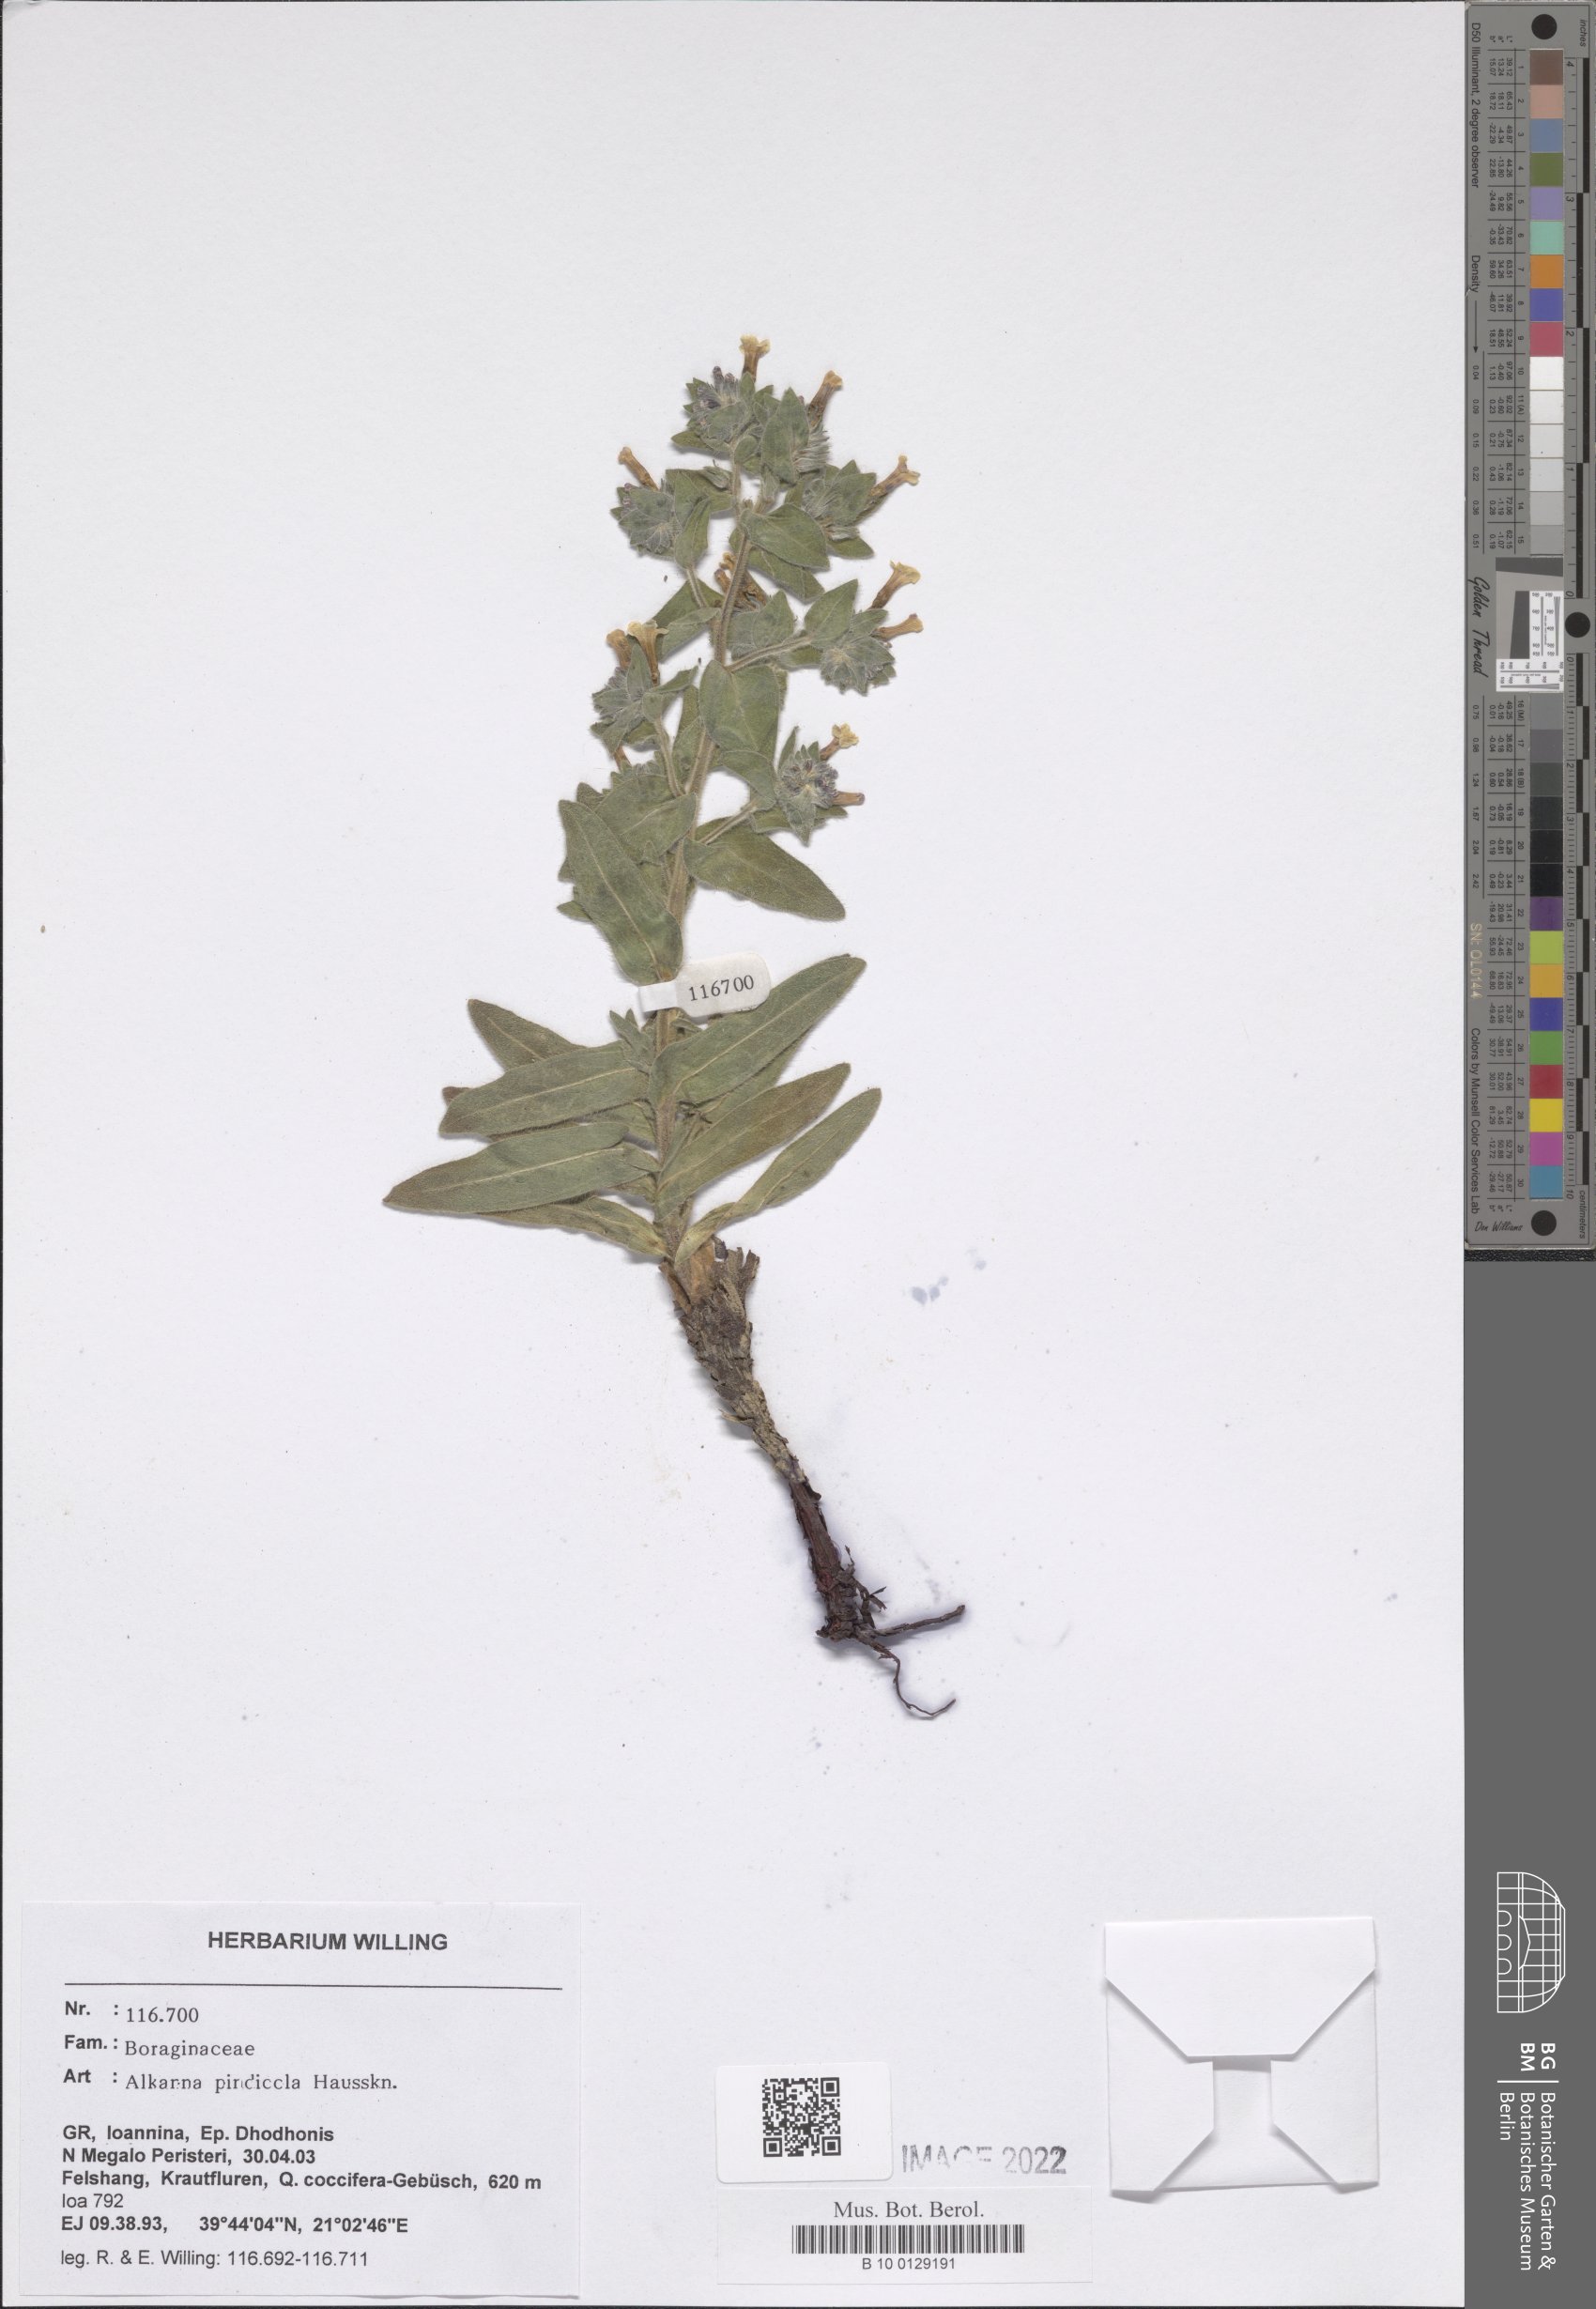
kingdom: Plantae
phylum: Tracheophyta
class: Magnoliopsida
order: Boraginales
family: Boraginaceae
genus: Alkanna
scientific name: Alkanna pindicola
